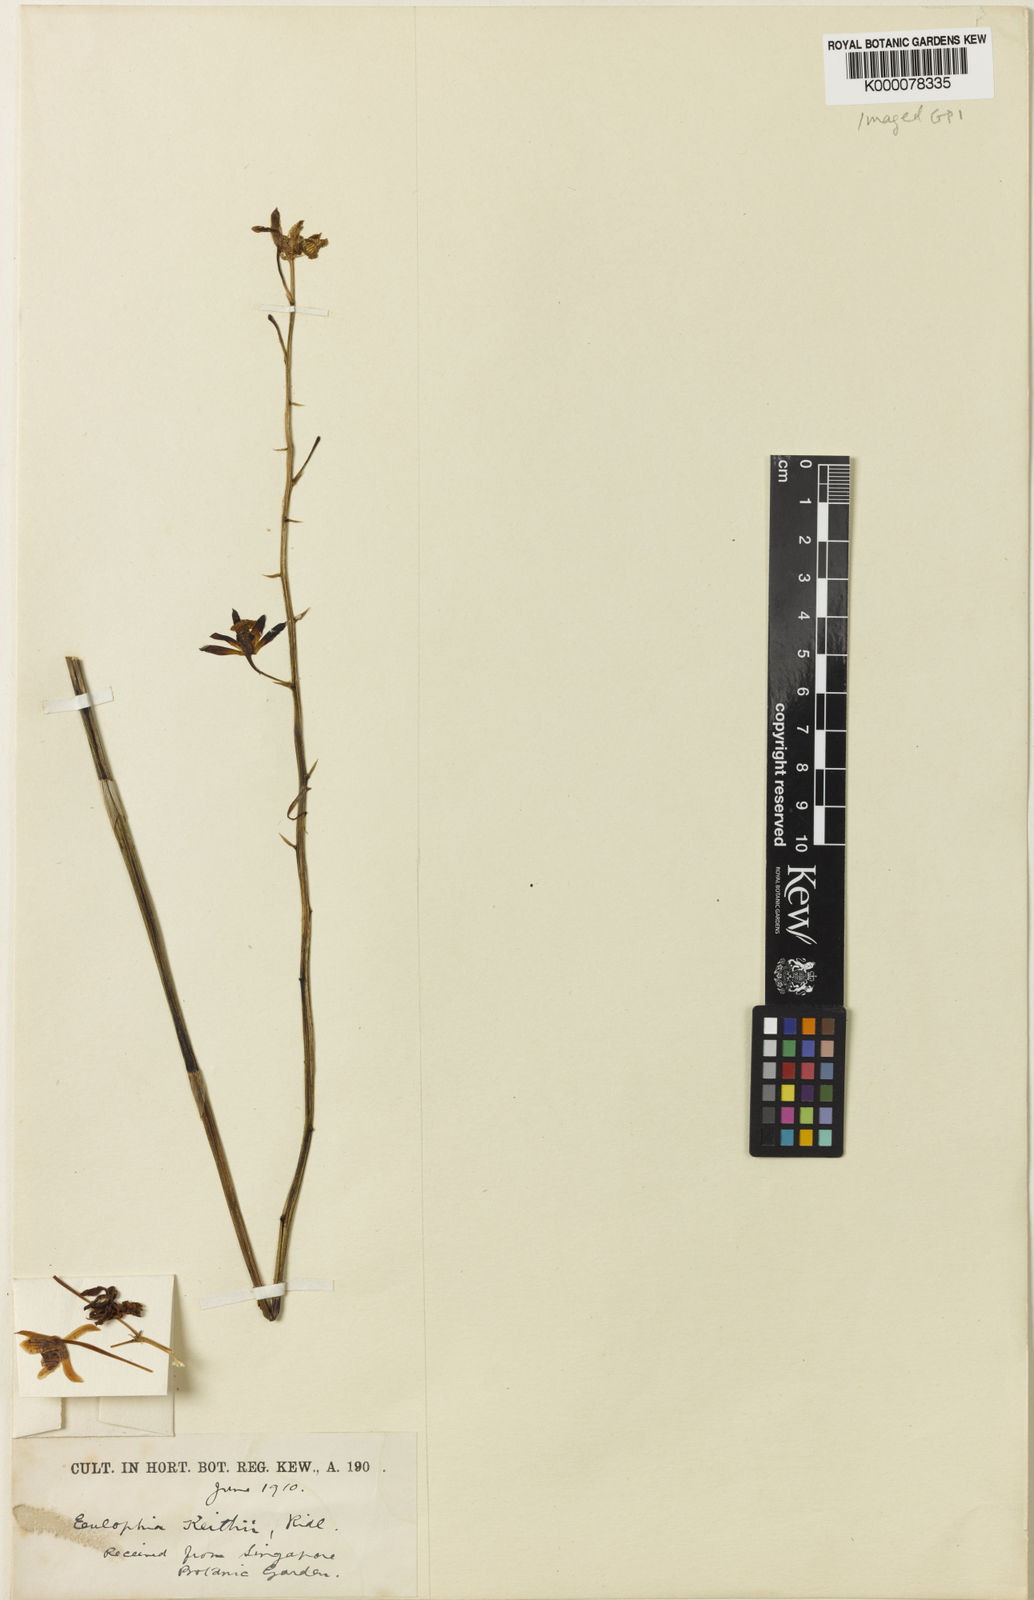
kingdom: Plantae
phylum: Tracheophyta
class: Liliopsida
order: Asparagales
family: Orchidaceae
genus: Eulophia
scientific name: Eulophia andamanensis
